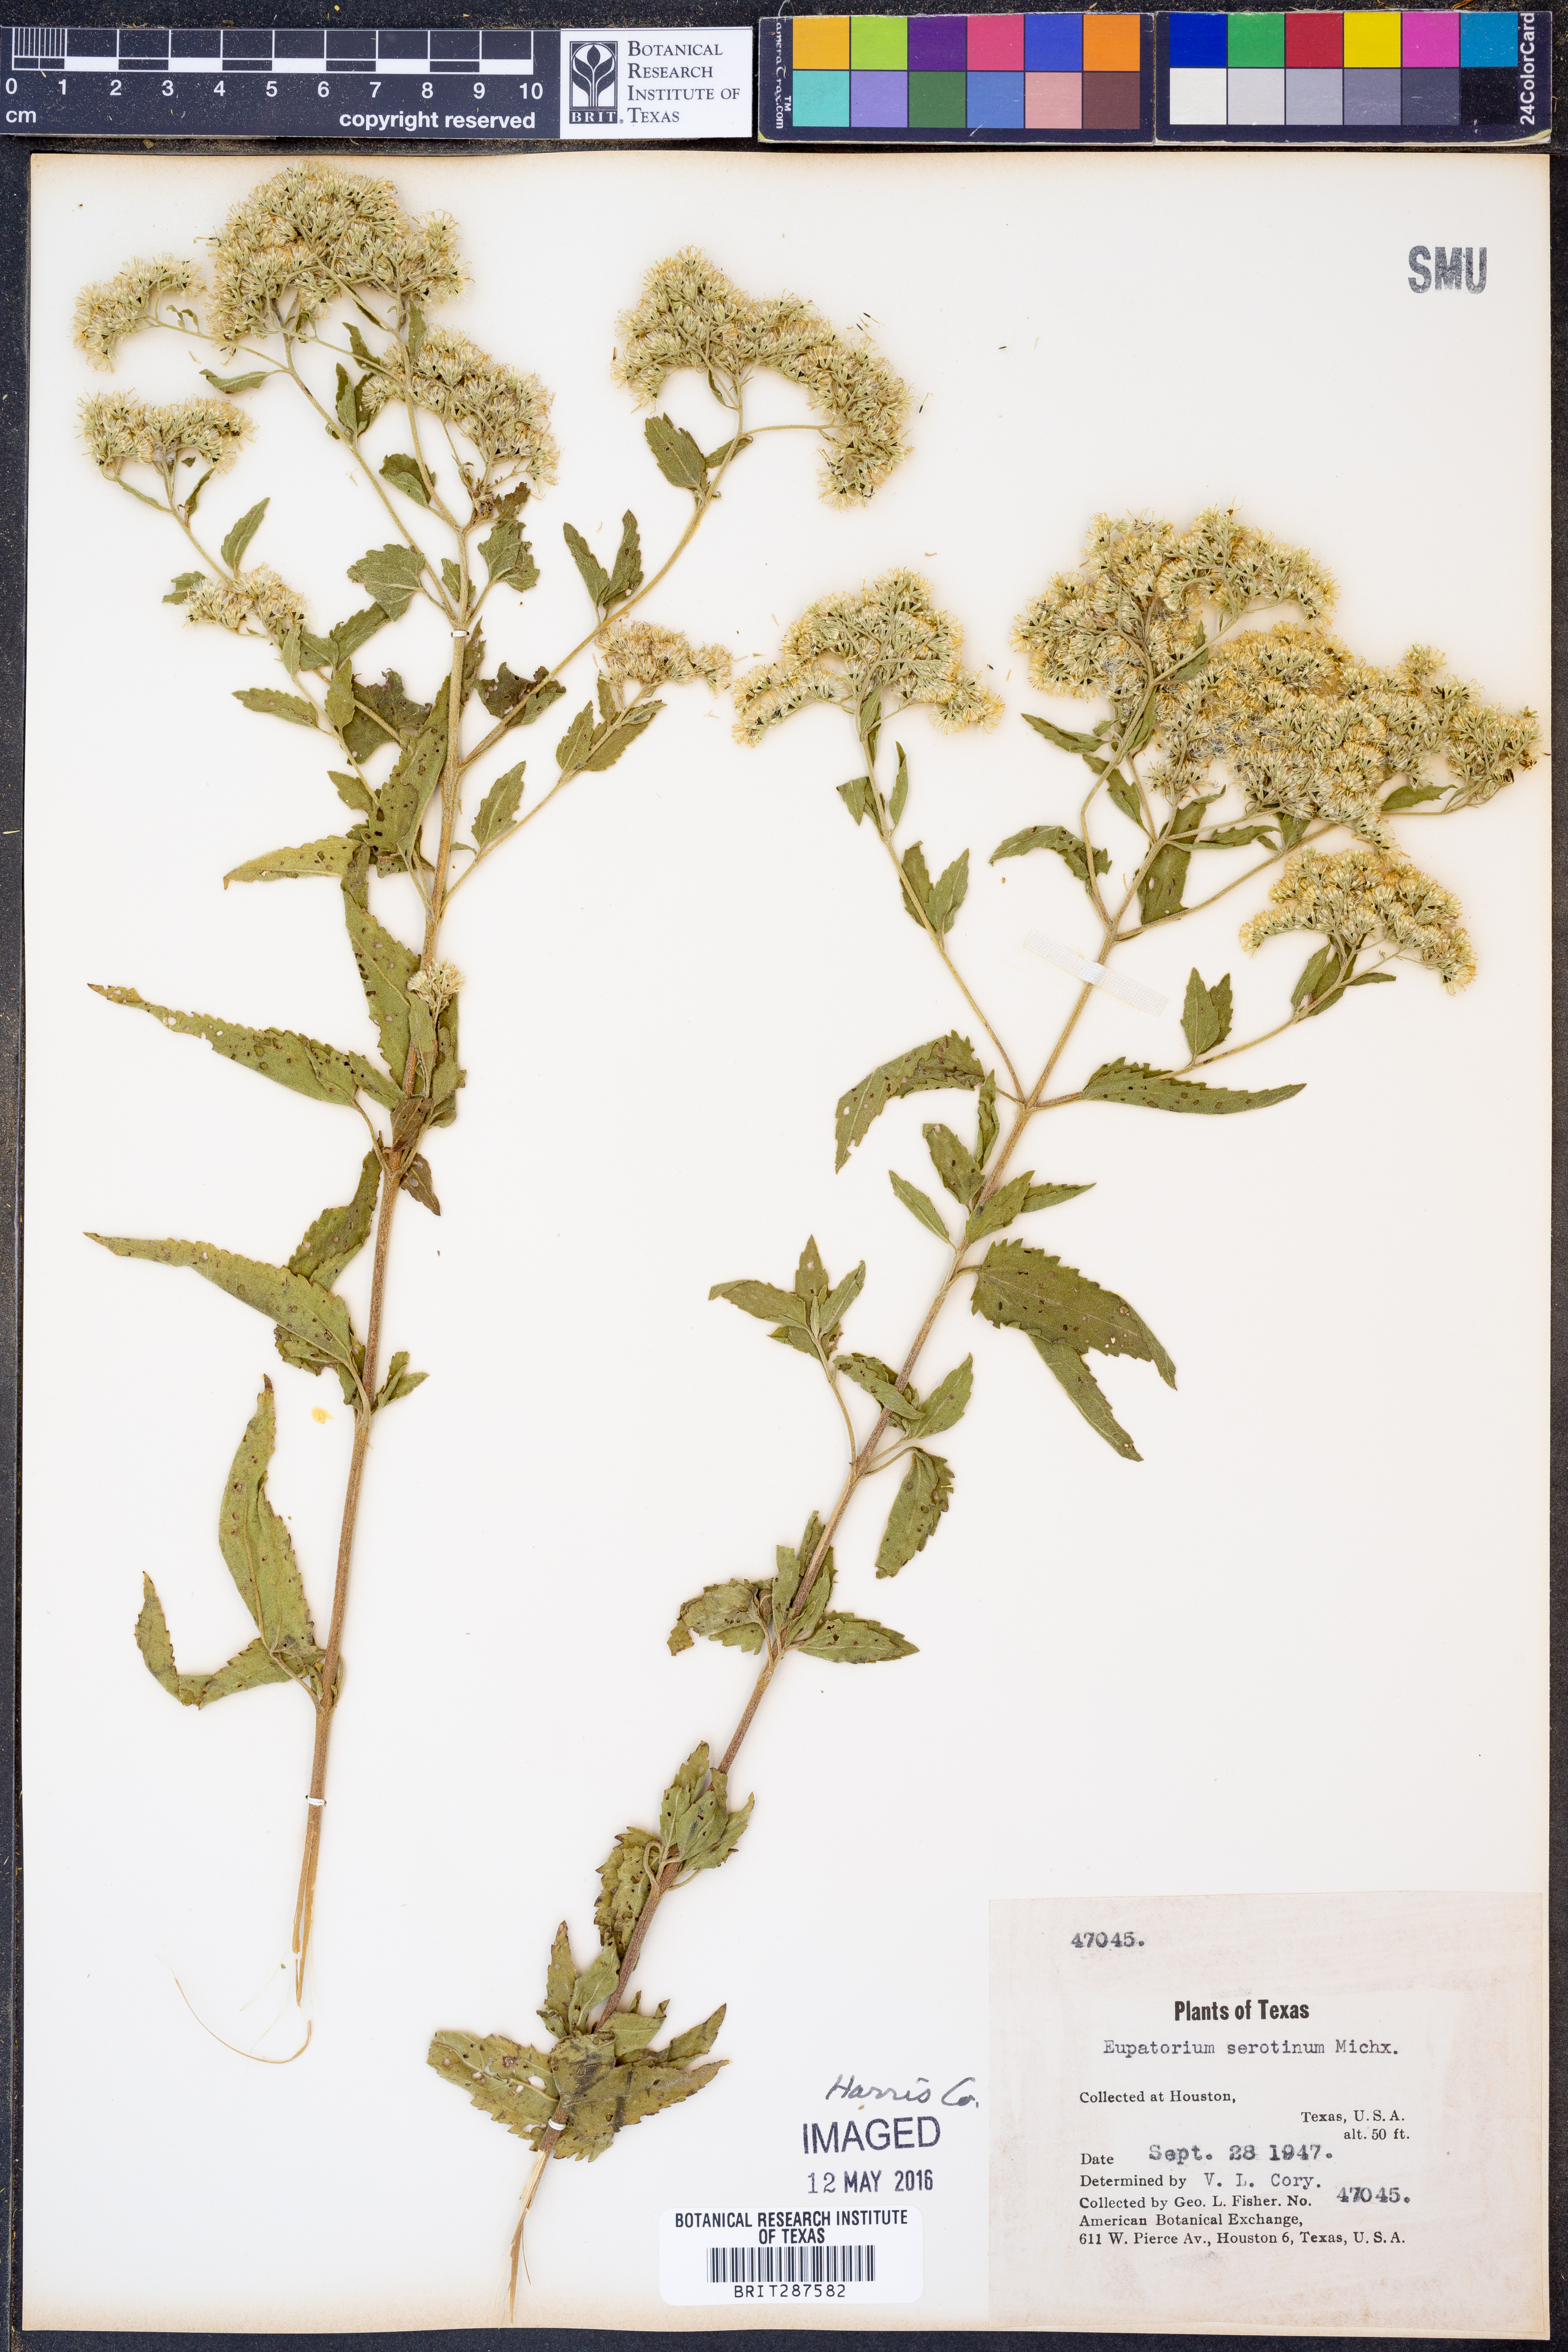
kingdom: Plantae
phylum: Tracheophyta
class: Magnoliopsida
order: Asterales
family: Asteraceae
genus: Eupatorium
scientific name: Eupatorium serotinum
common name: Late boneset
